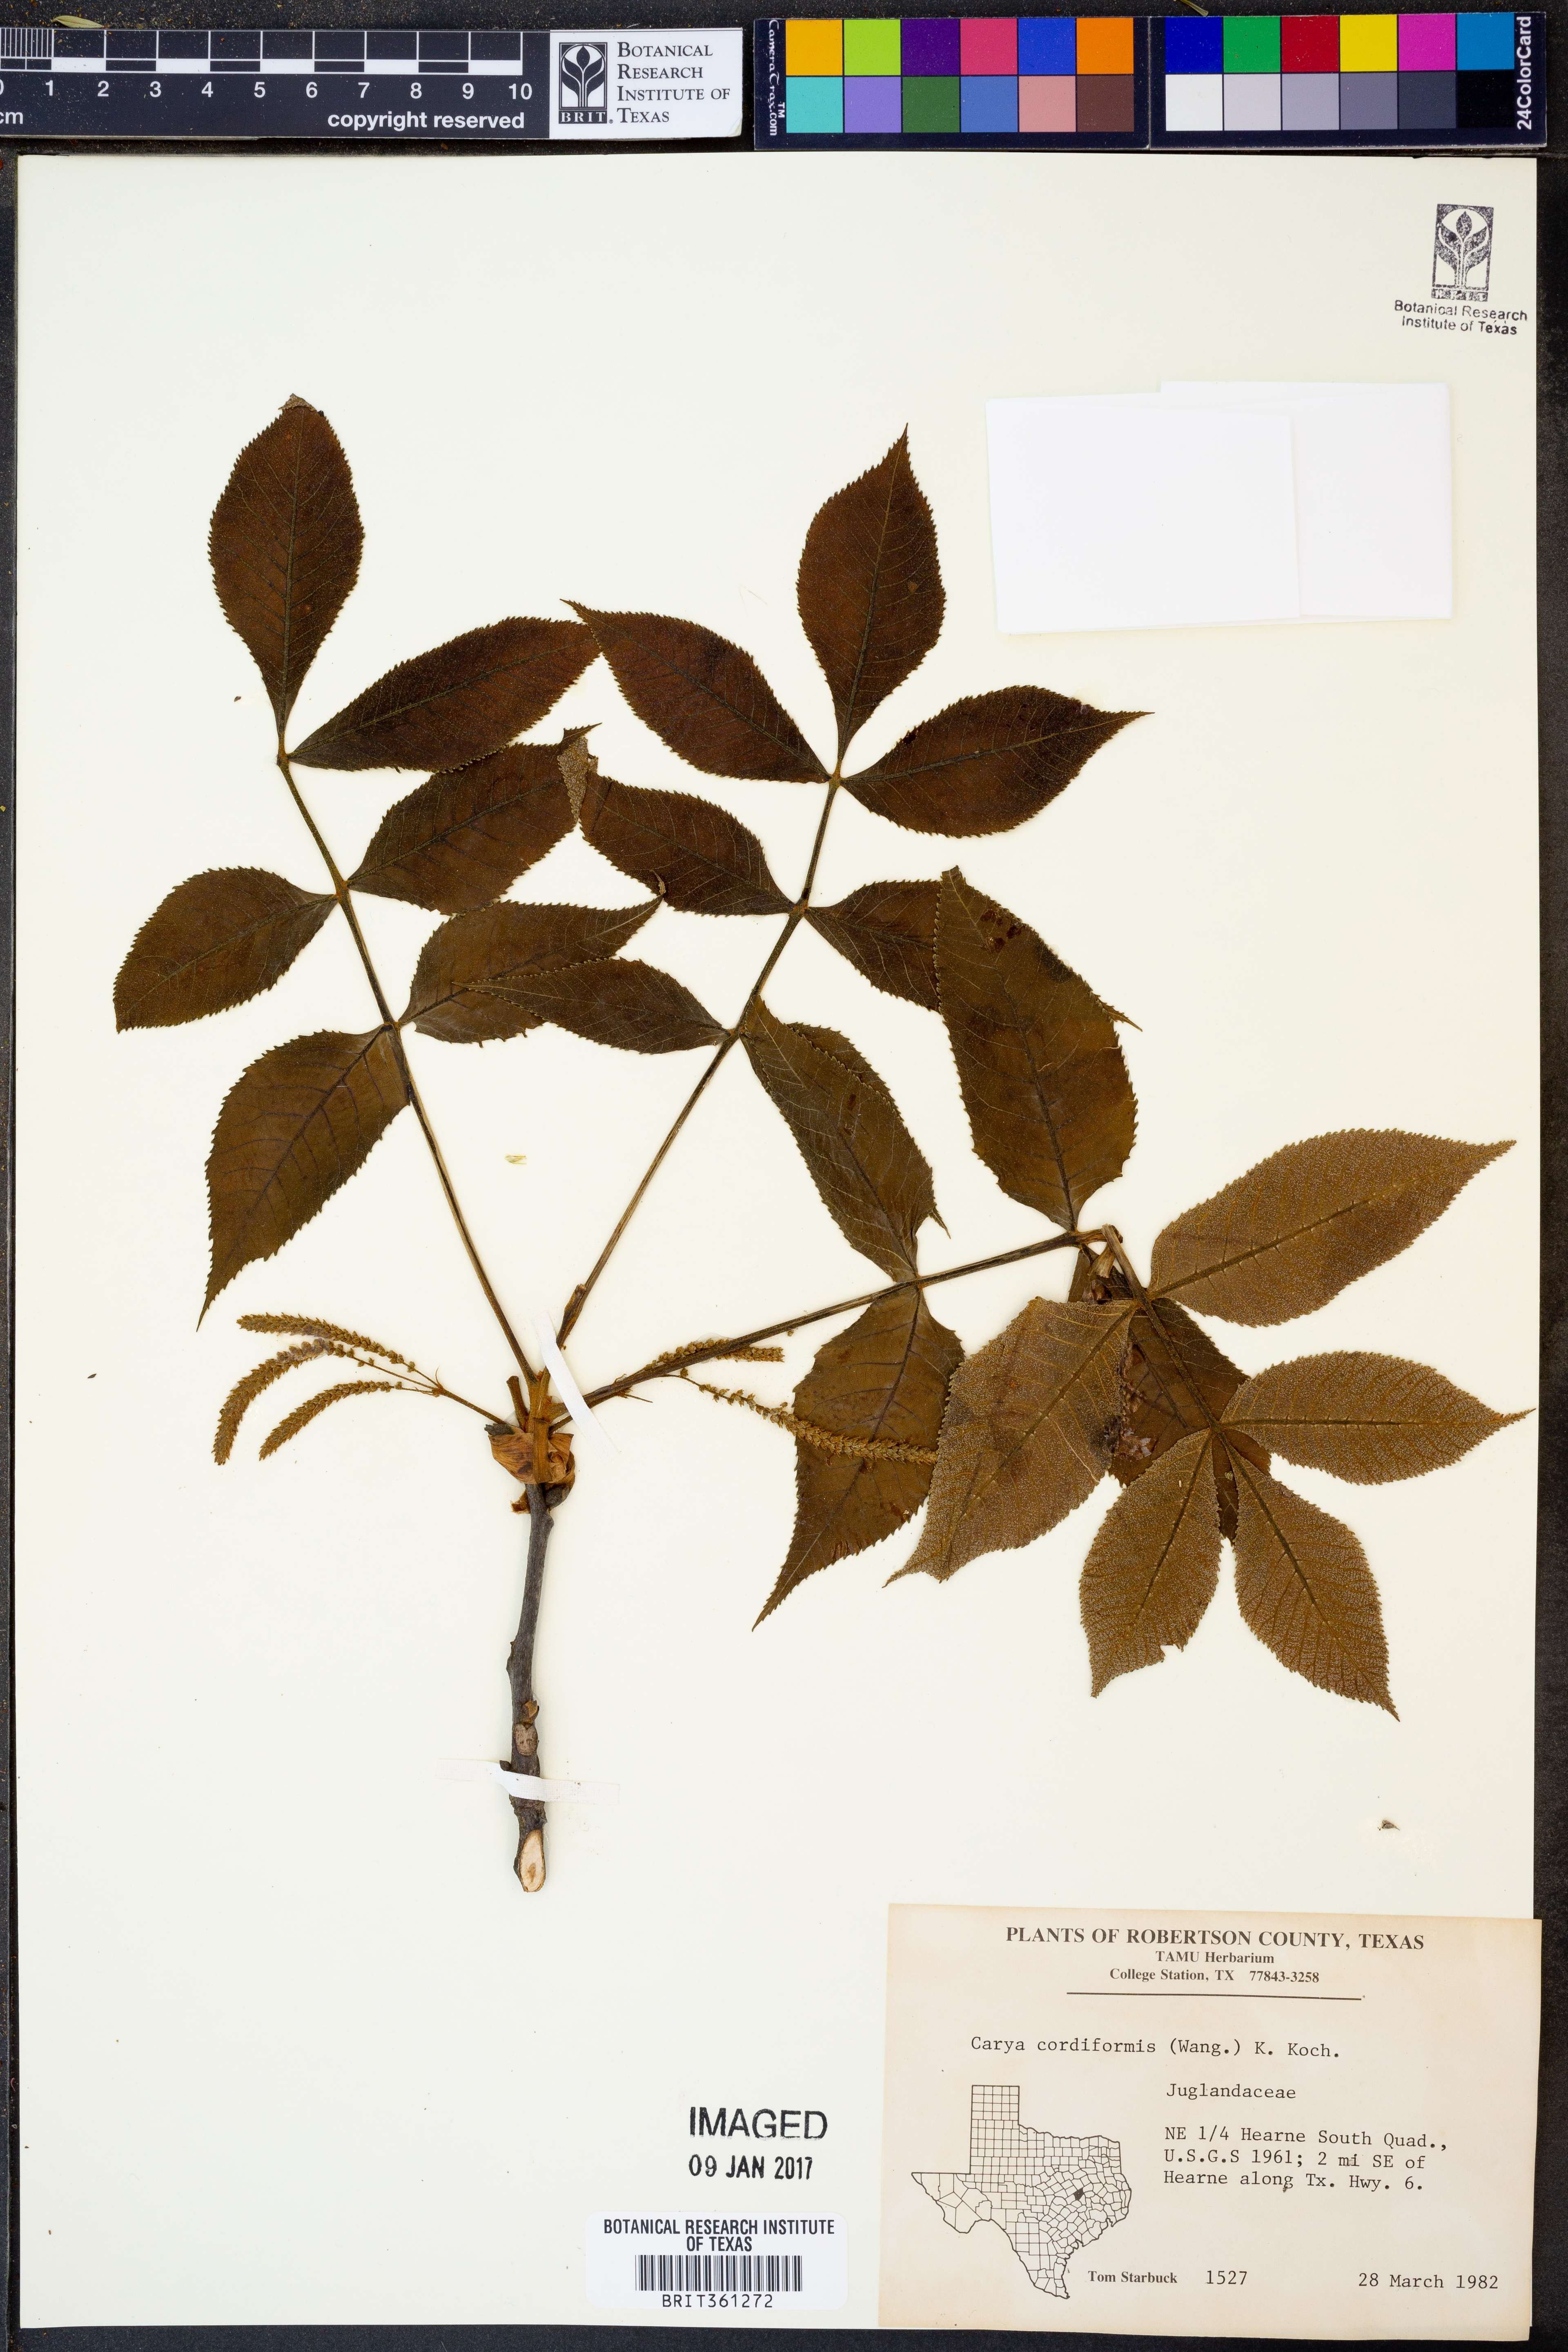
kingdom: Plantae
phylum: Tracheophyta
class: Magnoliopsida
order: Fagales
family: Juglandaceae
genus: Carya
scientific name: Carya cordiformis
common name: Bitternut hickory
